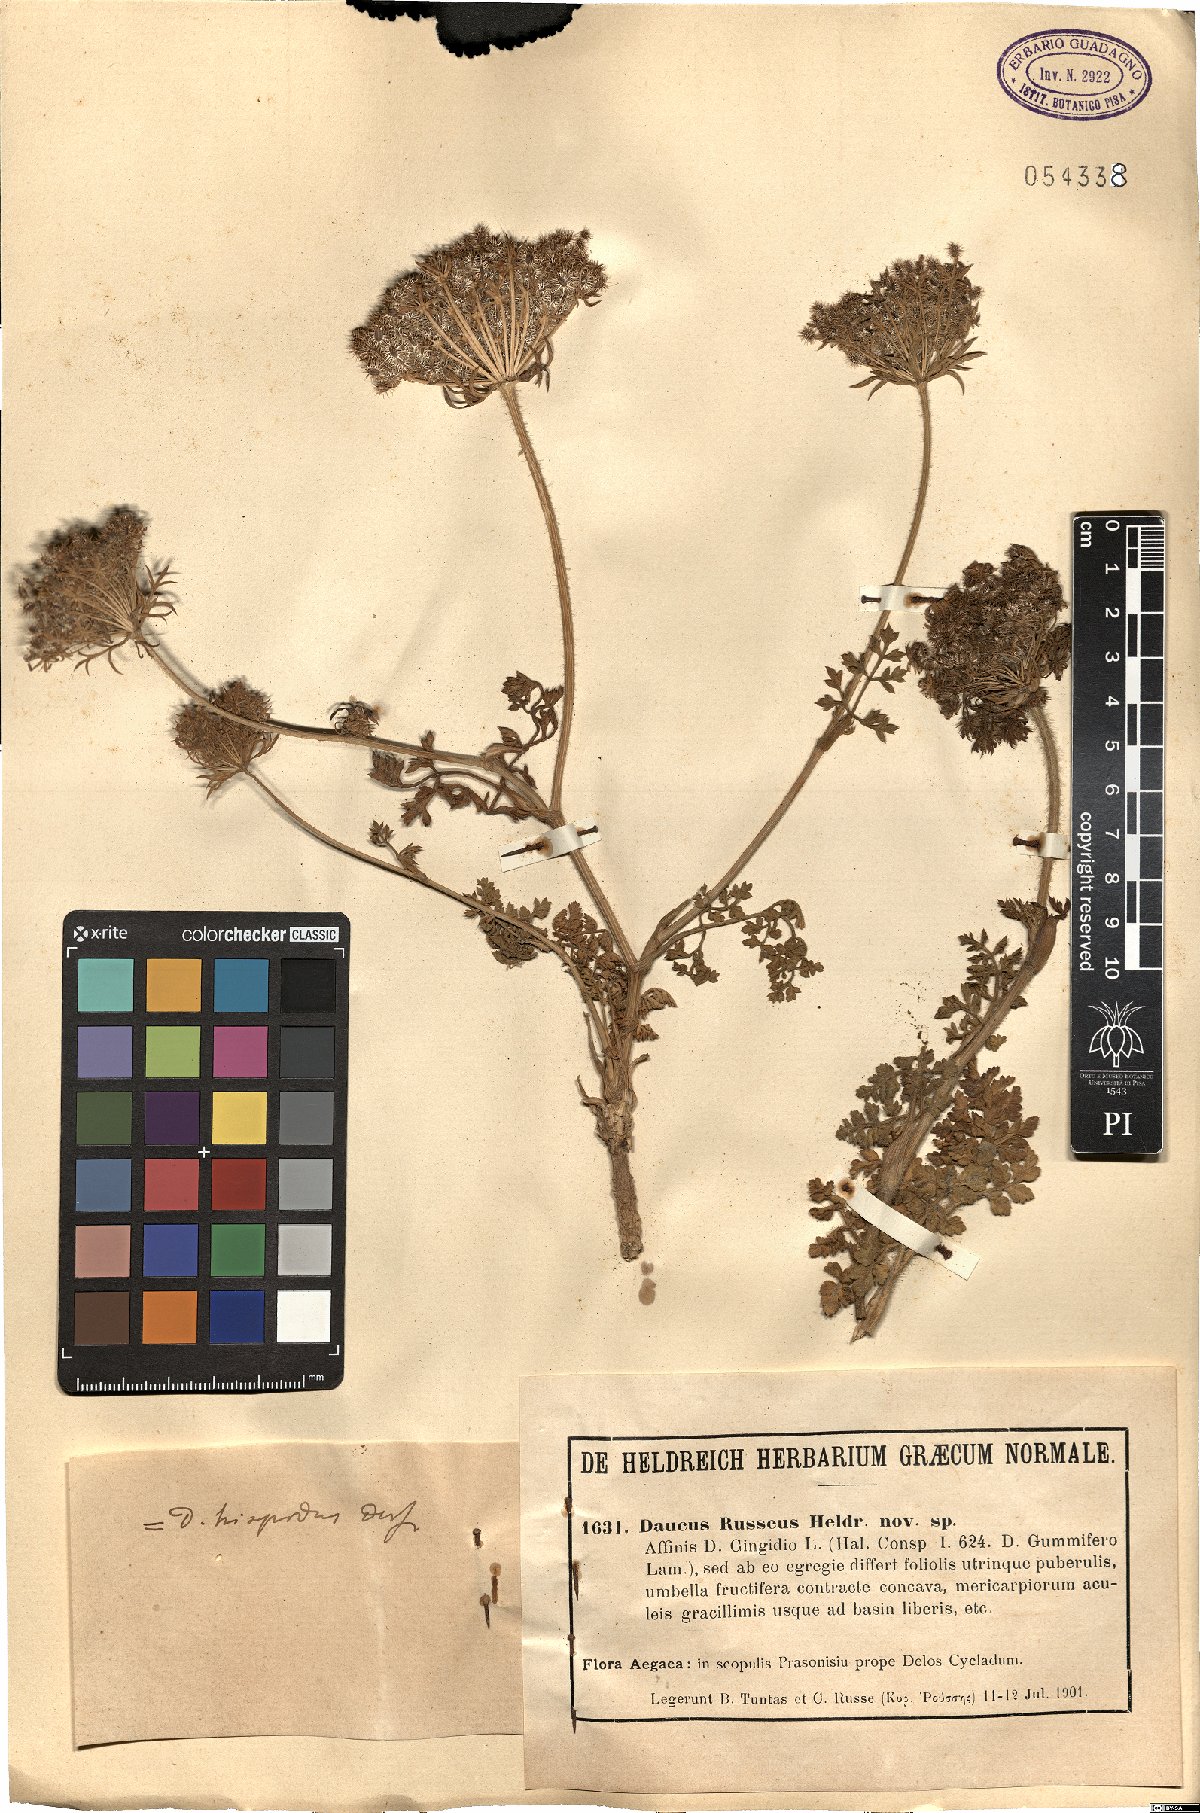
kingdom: Plantae
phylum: Tracheophyta
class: Magnoliopsida
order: Apiales
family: Apiaceae
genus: Daucus
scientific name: Daucus carota
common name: Wild carrot
